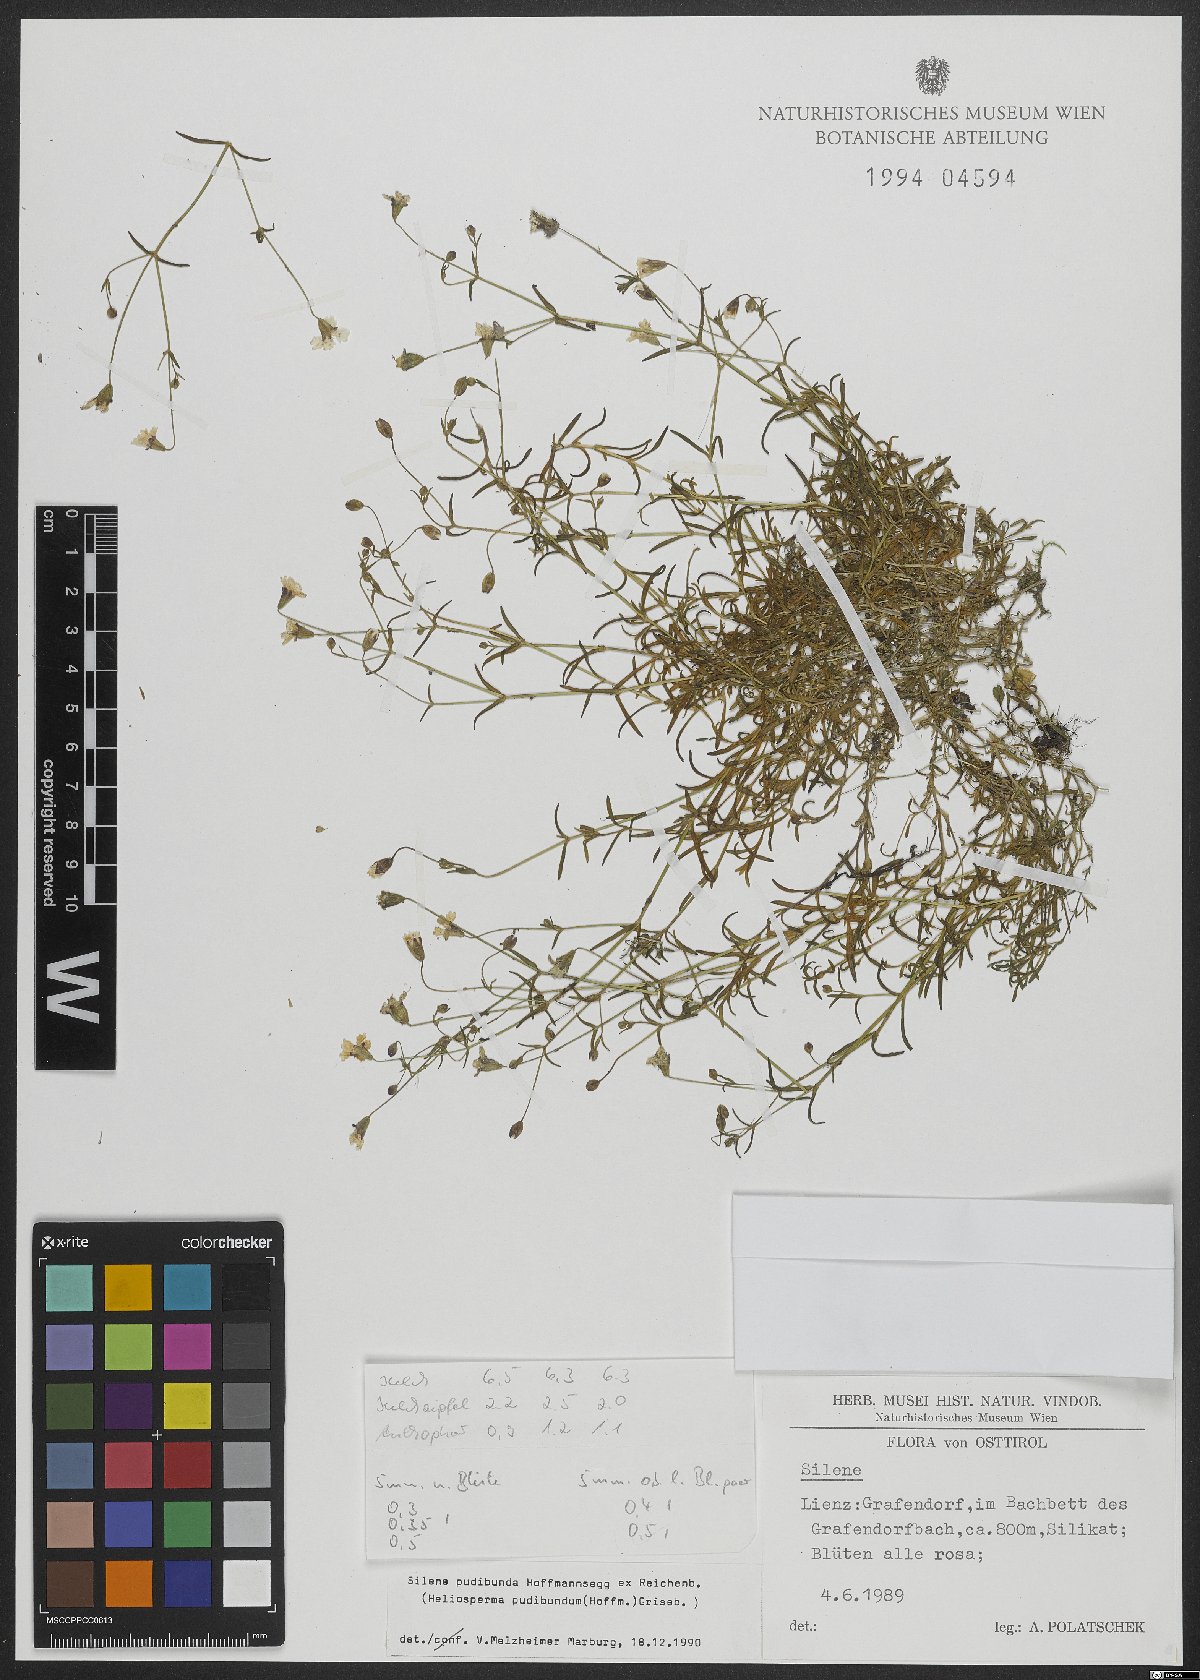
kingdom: Plantae
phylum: Tracheophyta
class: Magnoliopsida
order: Caryophyllales
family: Caryophyllaceae
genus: Heliosperma
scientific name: Heliosperma pudibundum
